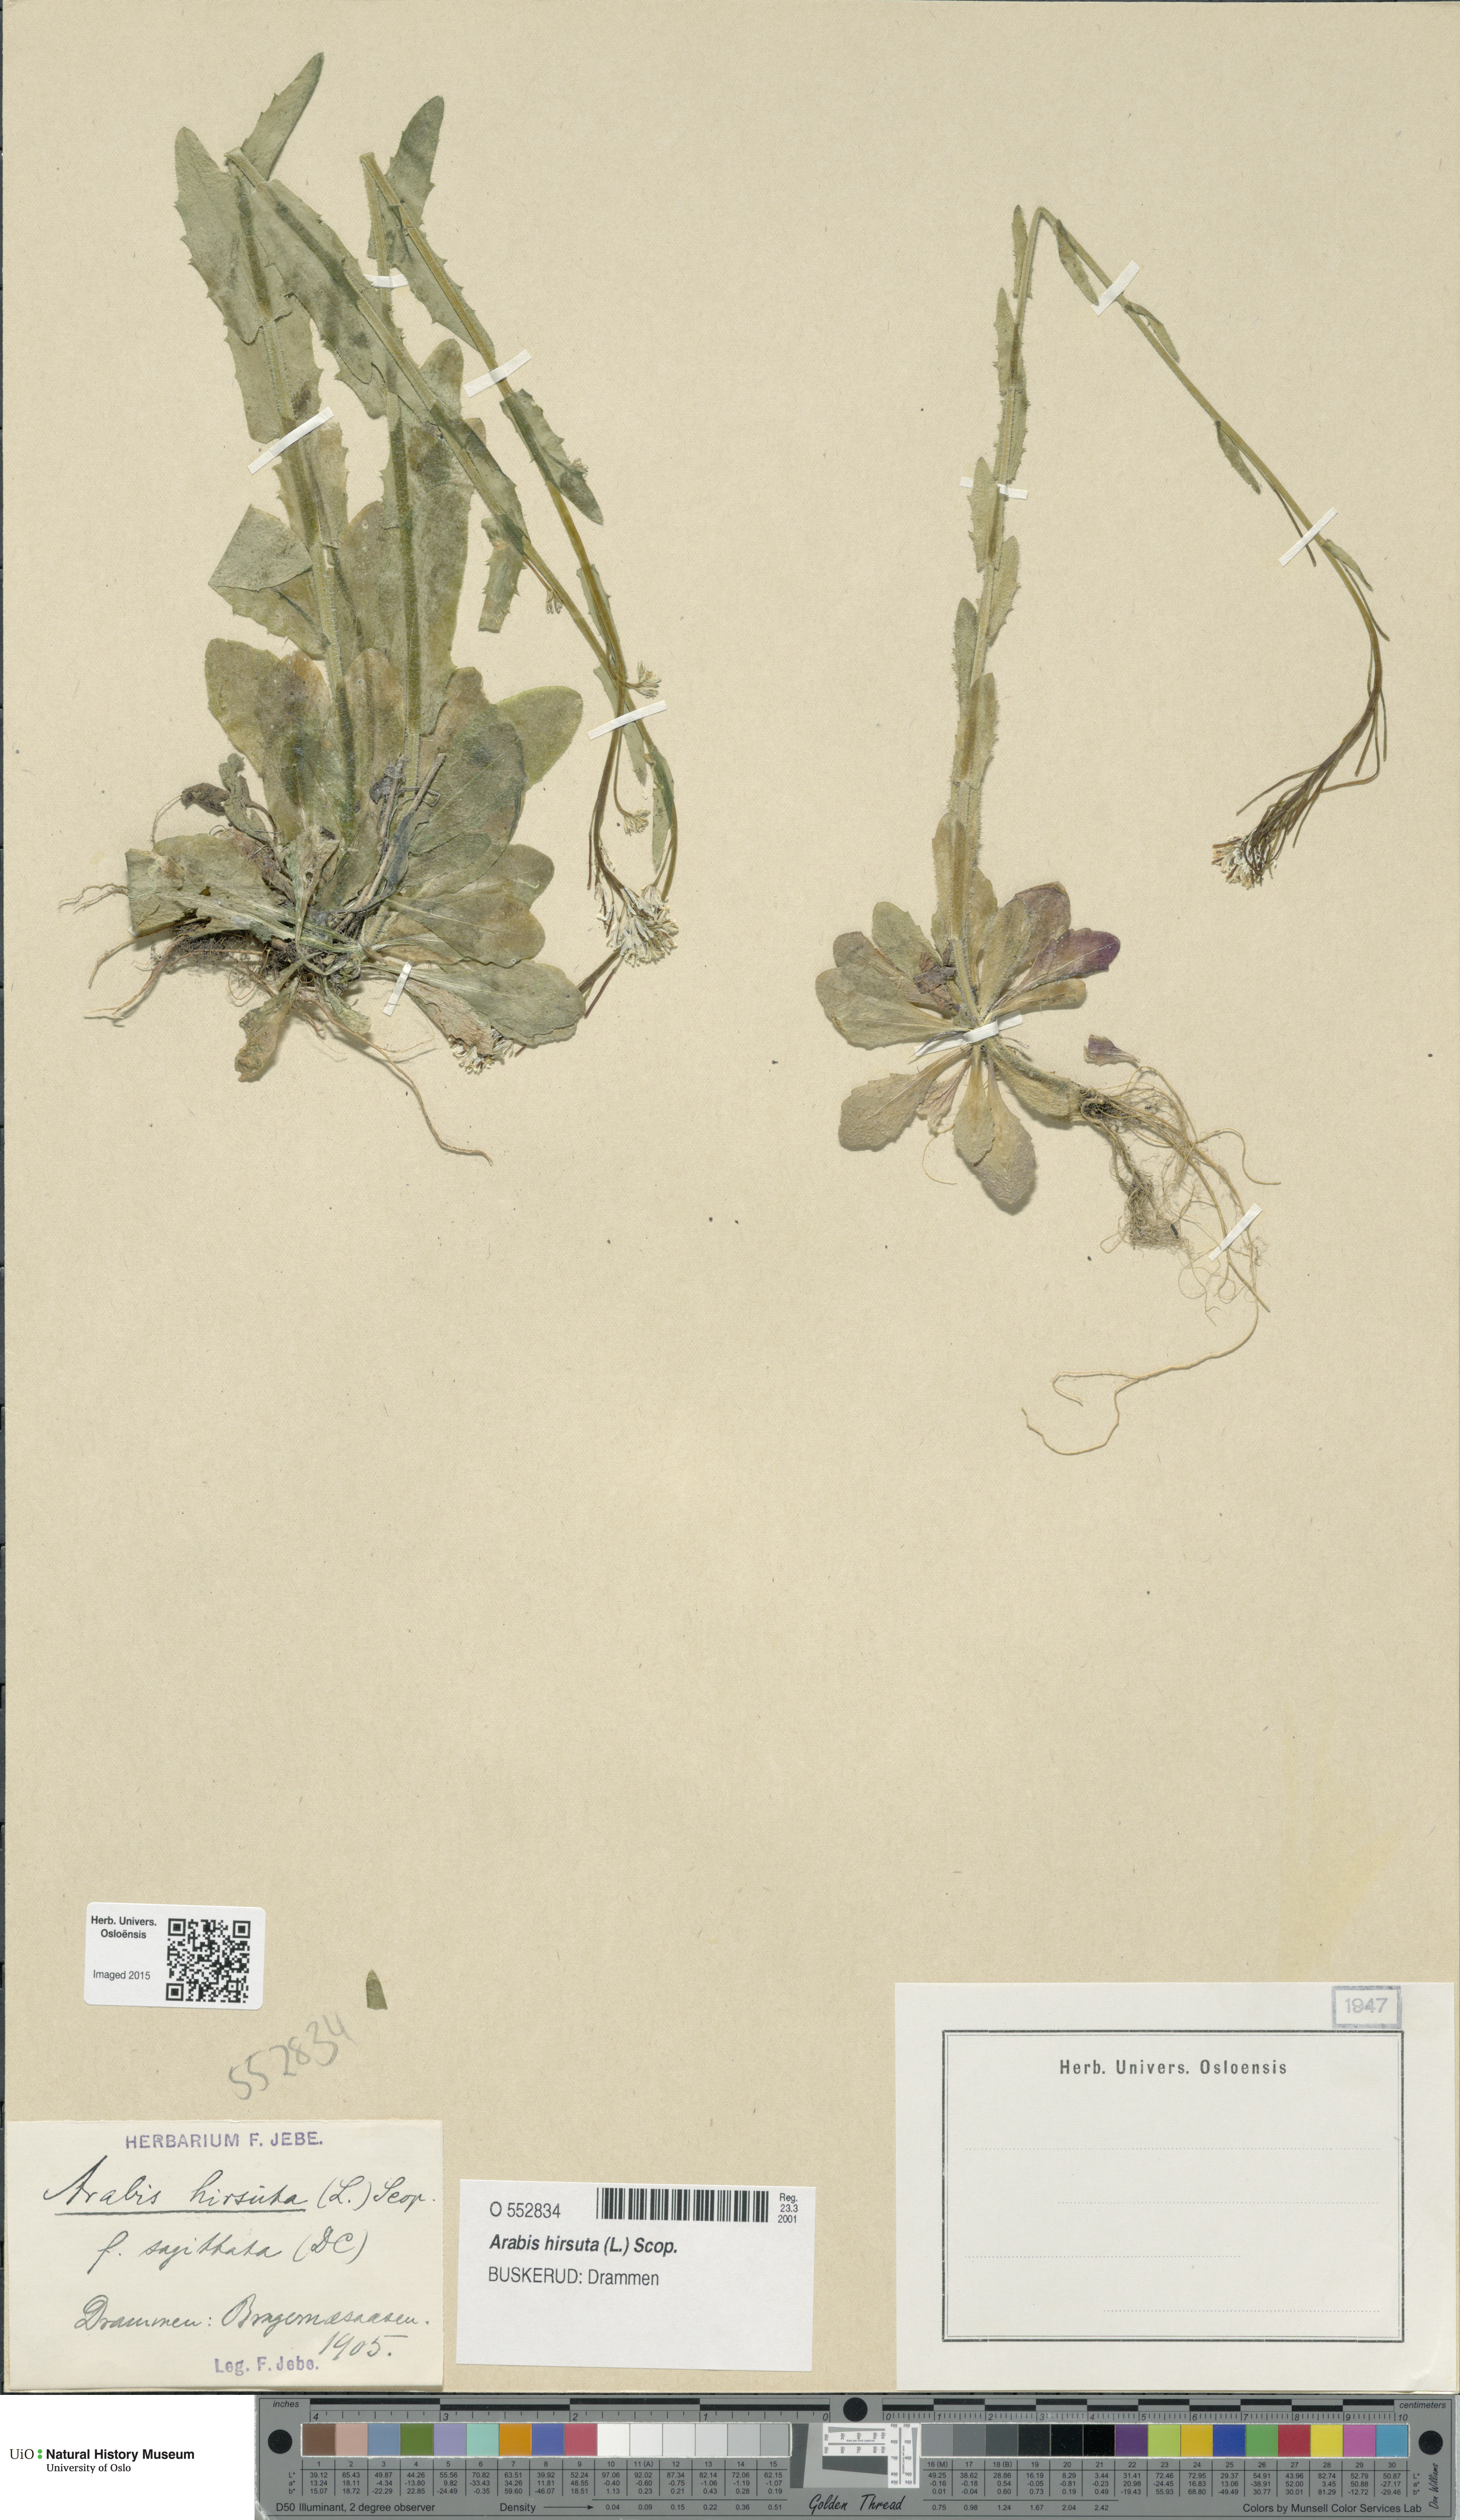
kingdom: Plantae
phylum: Tracheophyta
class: Magnoliopsida
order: Brassicales
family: Brassicaceae
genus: Arabis
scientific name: Arabis hirsuta
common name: Hairy rock-cress
